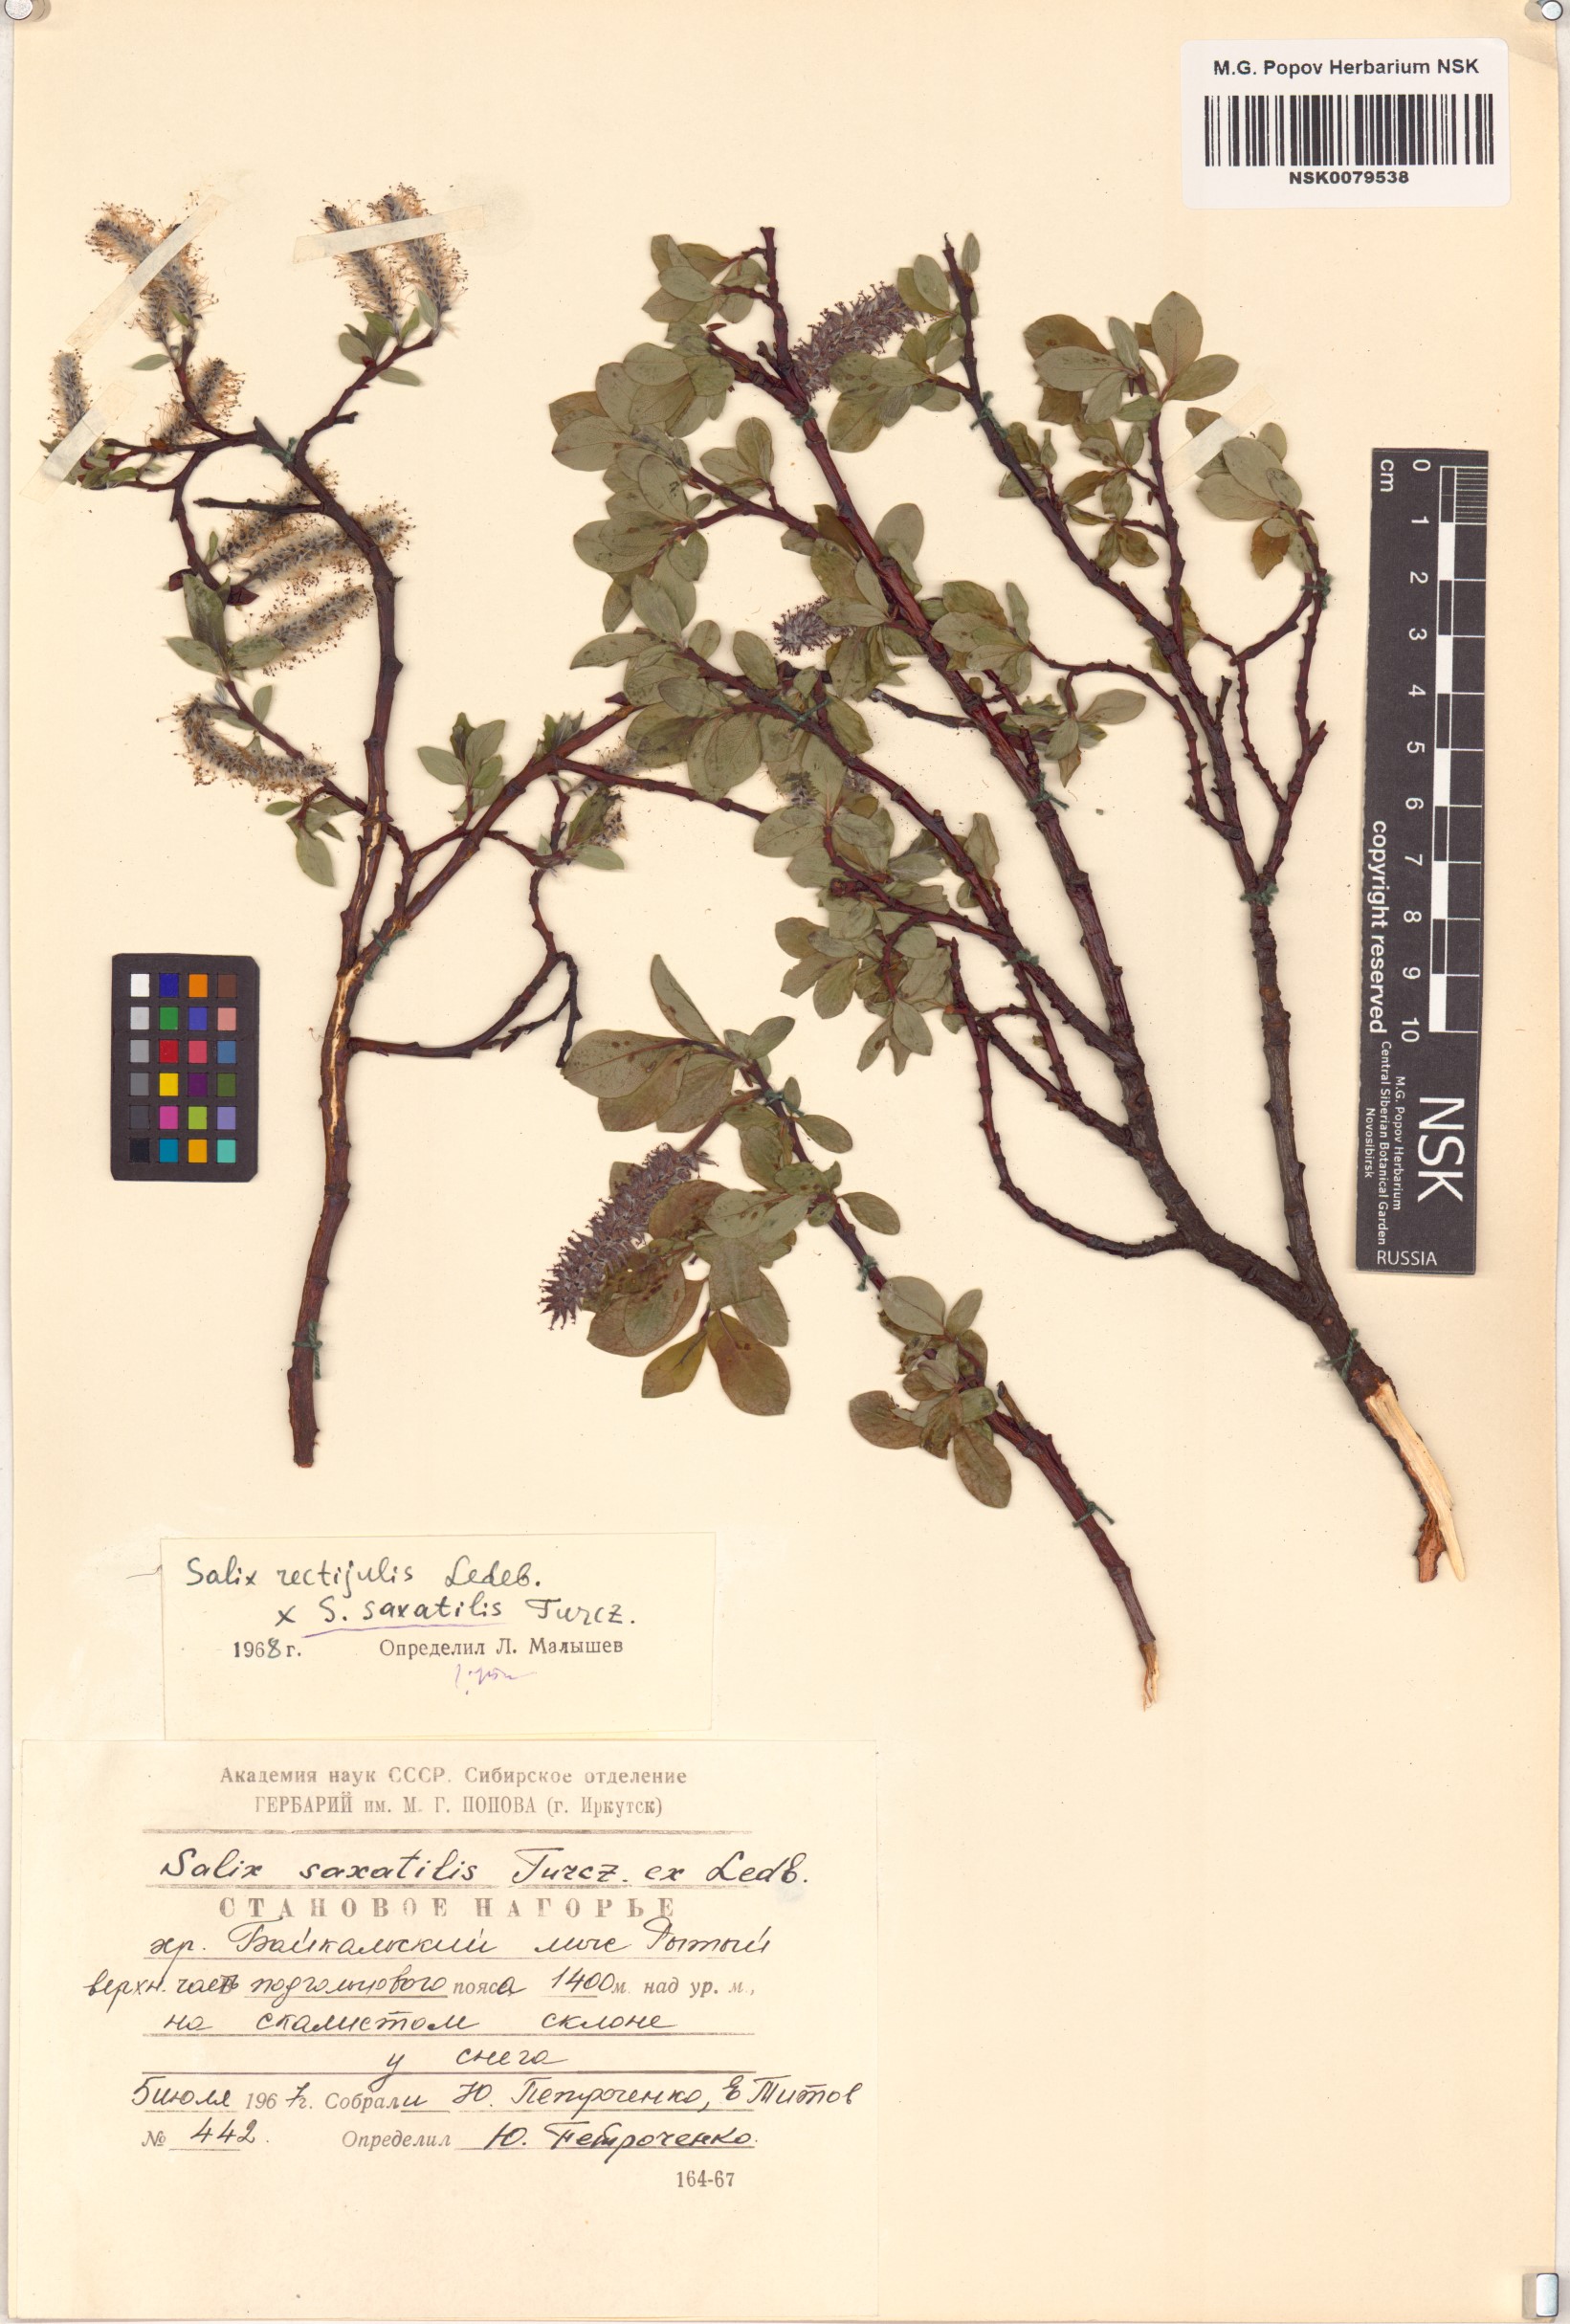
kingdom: Plantae
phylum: Tracheophyta
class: Magnoliopsida
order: Malpighiales
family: Salicaceae
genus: Salix
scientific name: Salix saxatilis
